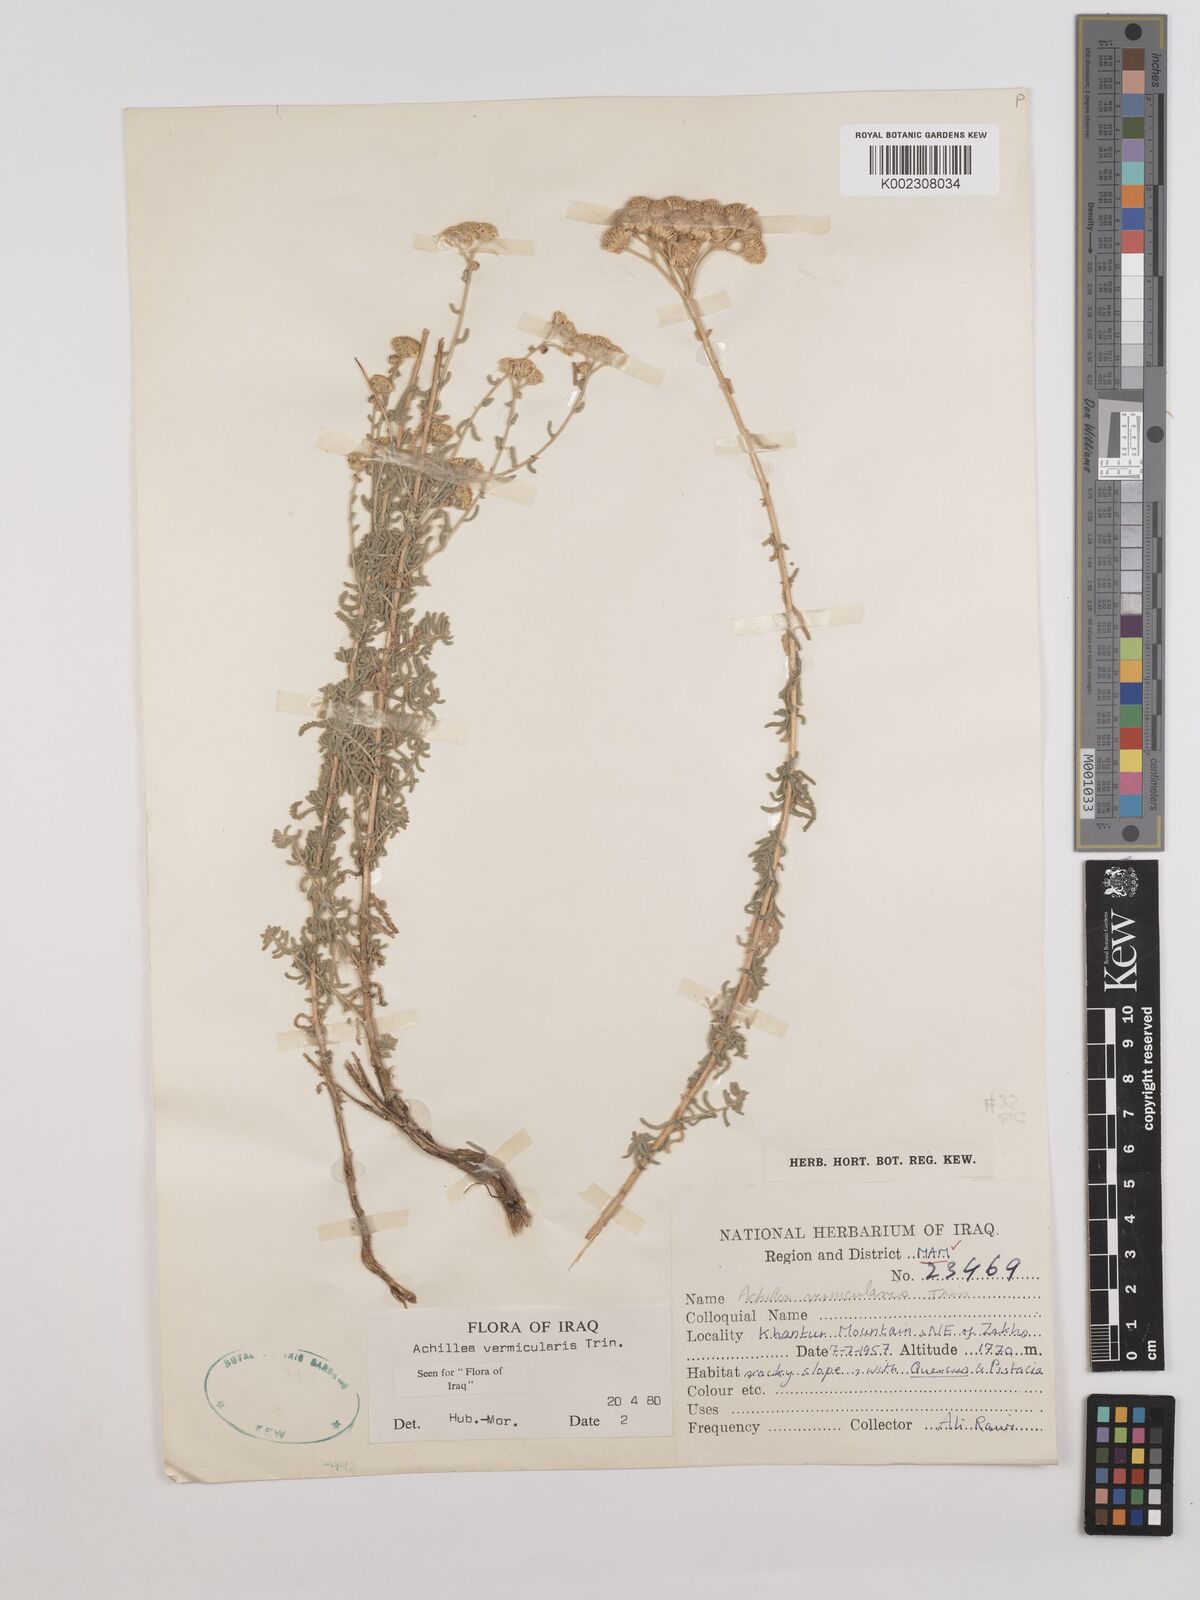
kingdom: Plantae
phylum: Tracheophyta
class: Magnoliopsida
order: Asterales
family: Asteraceae
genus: Achillea
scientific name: Achillea vermicularis
